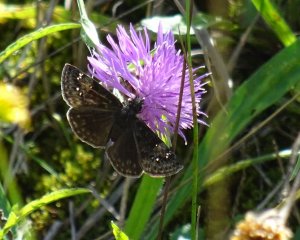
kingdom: Animalia
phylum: Arthropoda
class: Insecta
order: Lepidoptera
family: Hesperiidae
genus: Gesta
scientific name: Gesta
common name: Wild Indigo Duskywing
